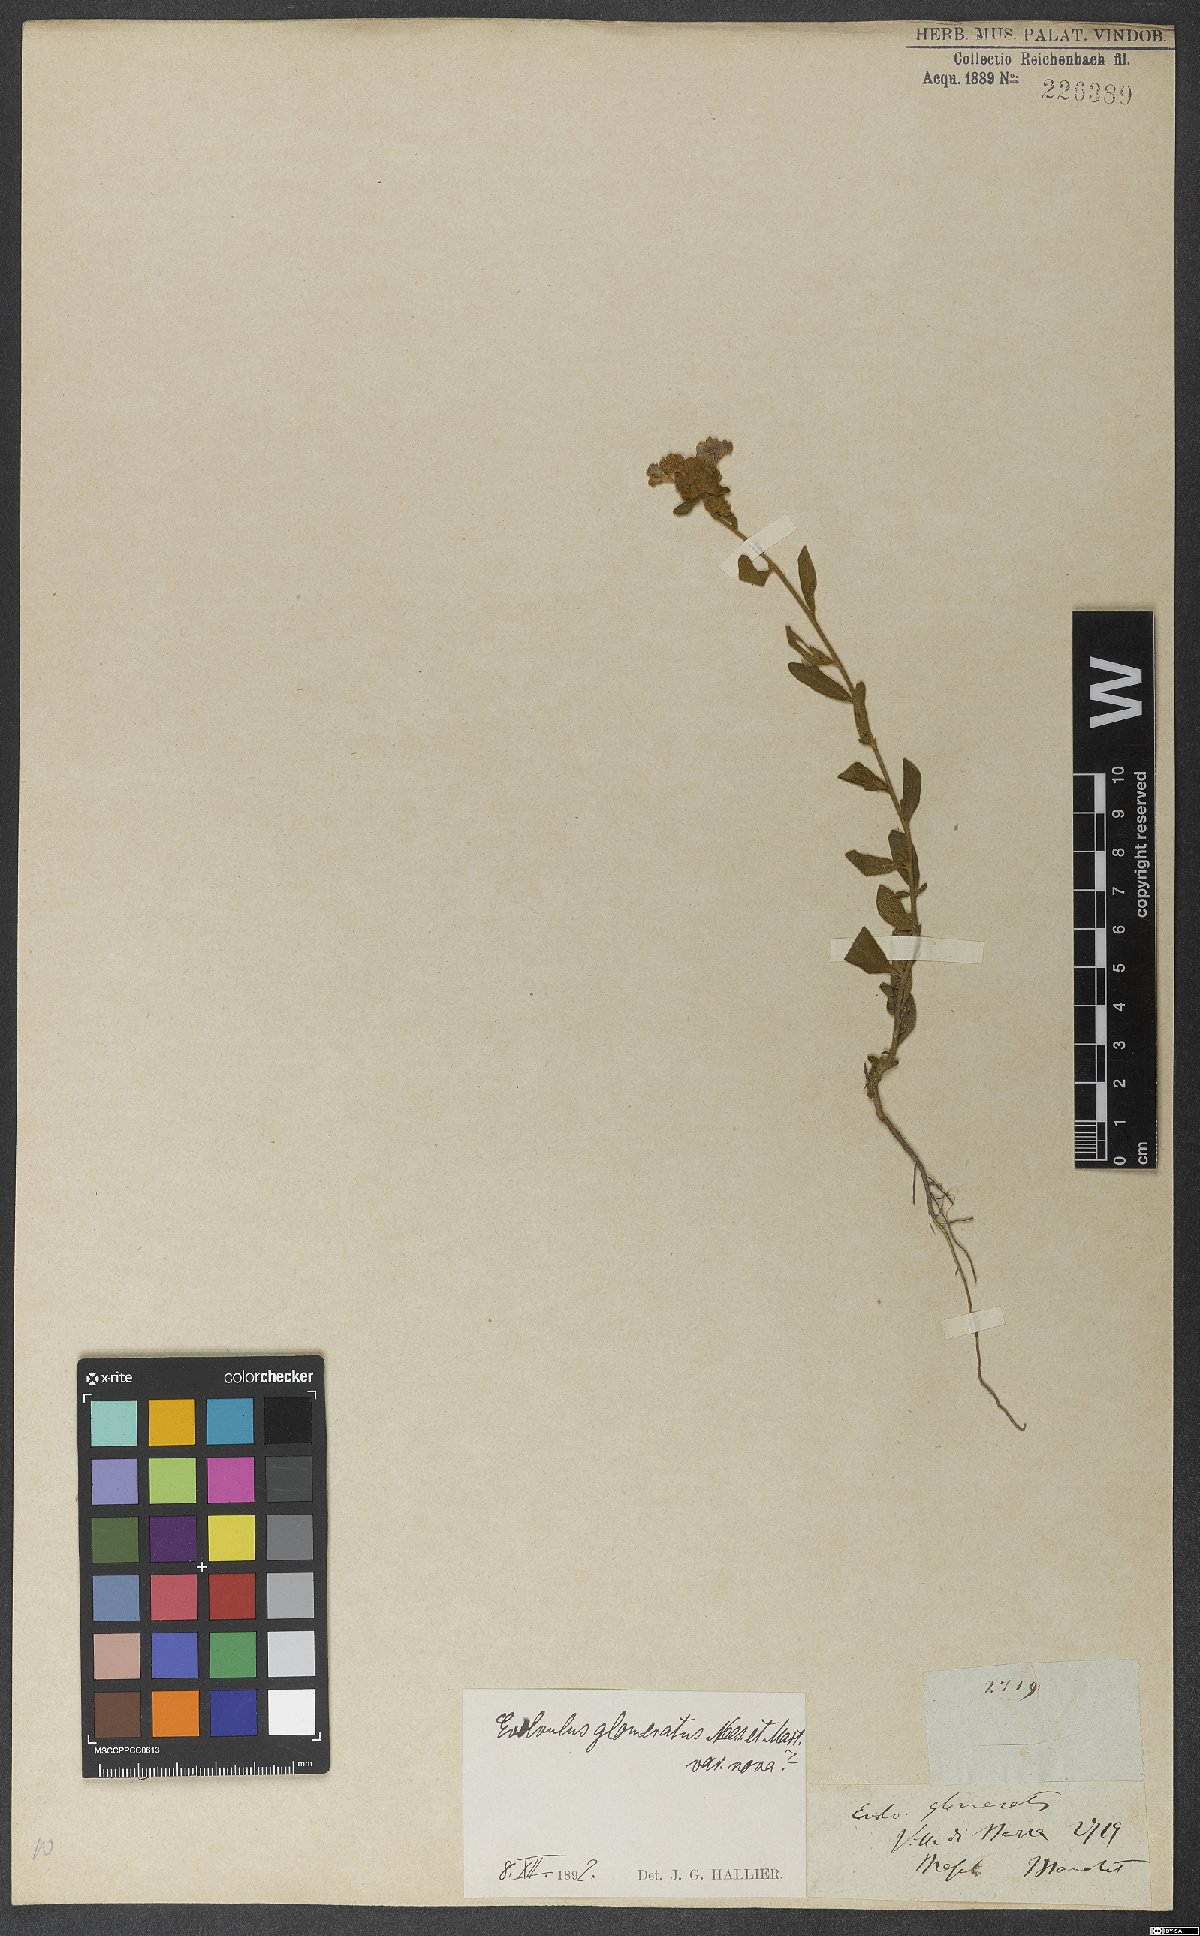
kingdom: Plantae
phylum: Tracheophyta
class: Magnoliopsida
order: Solanales
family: Convolvulaceae
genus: Evolvulus
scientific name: Evolvulus glomeratus
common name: Brazilian dwarf morning-glory
